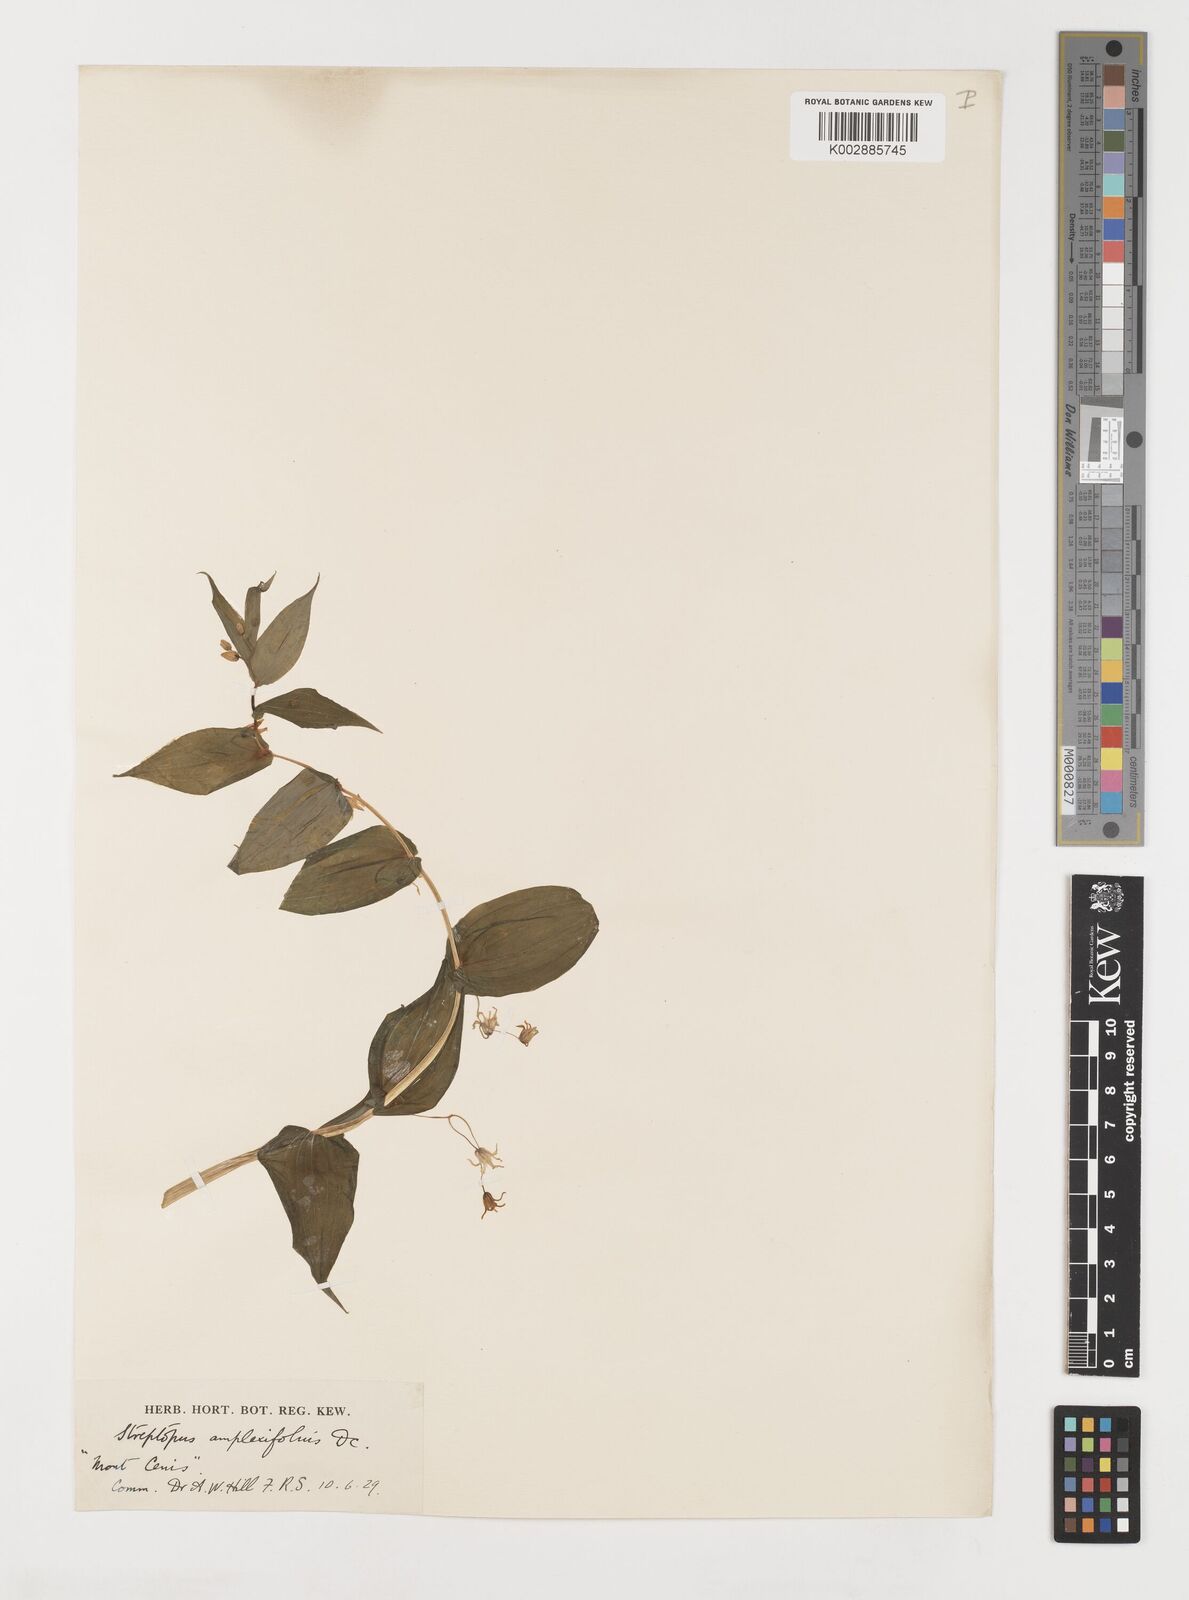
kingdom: Plantae
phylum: Tracheophyta
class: Liliopsida
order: Liliales
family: Liliaceae
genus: Streptopus
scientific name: Streptopus amplexifolius
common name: Clasp twisted stalk
